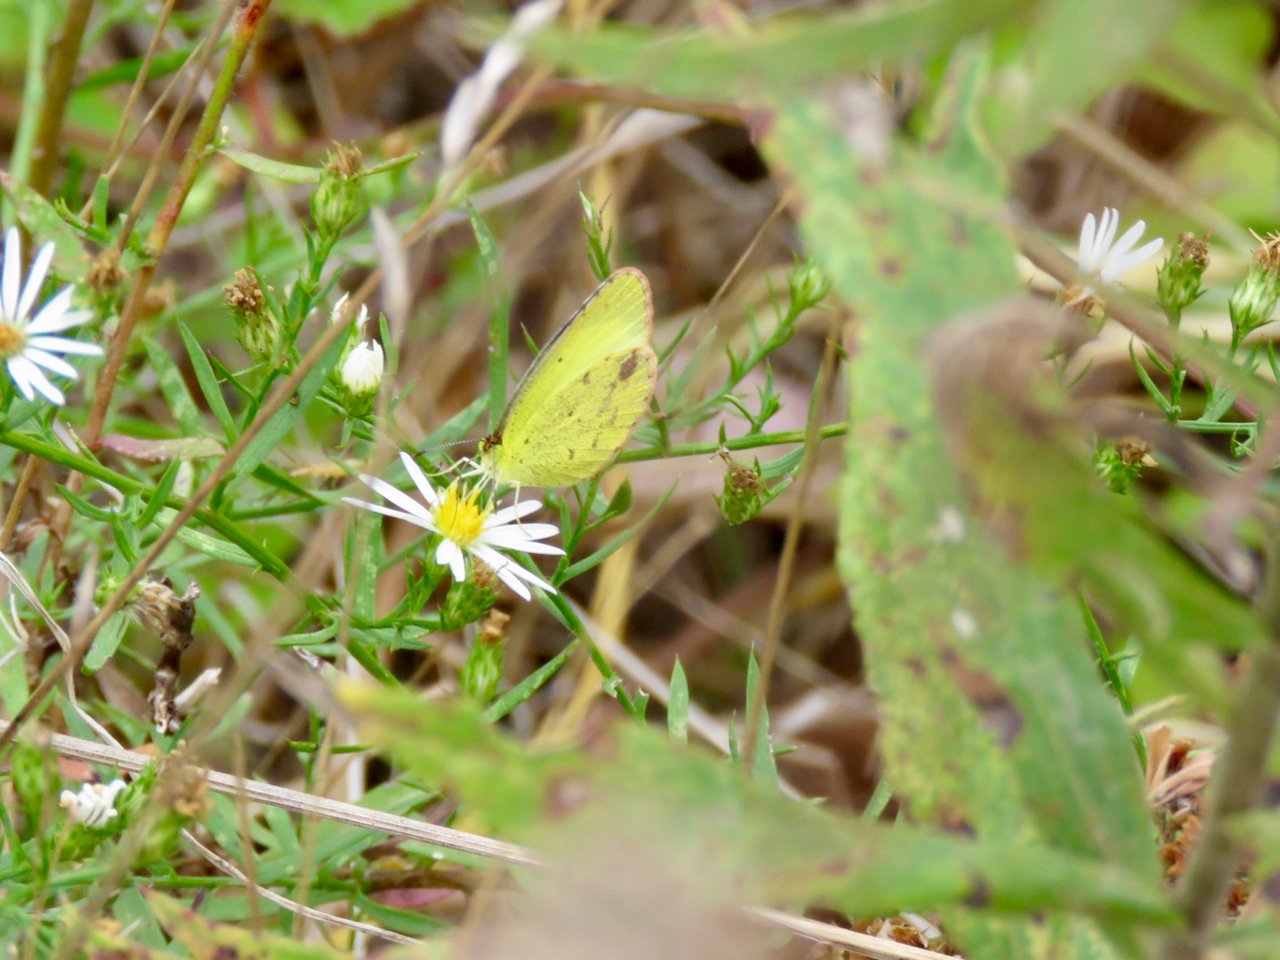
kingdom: Animalia
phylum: Arthropoda
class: Insecta
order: Lepidoptera
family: Pieridae
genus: Pyrisitia
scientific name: Pyrisitia lisa
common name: Little Yellow
